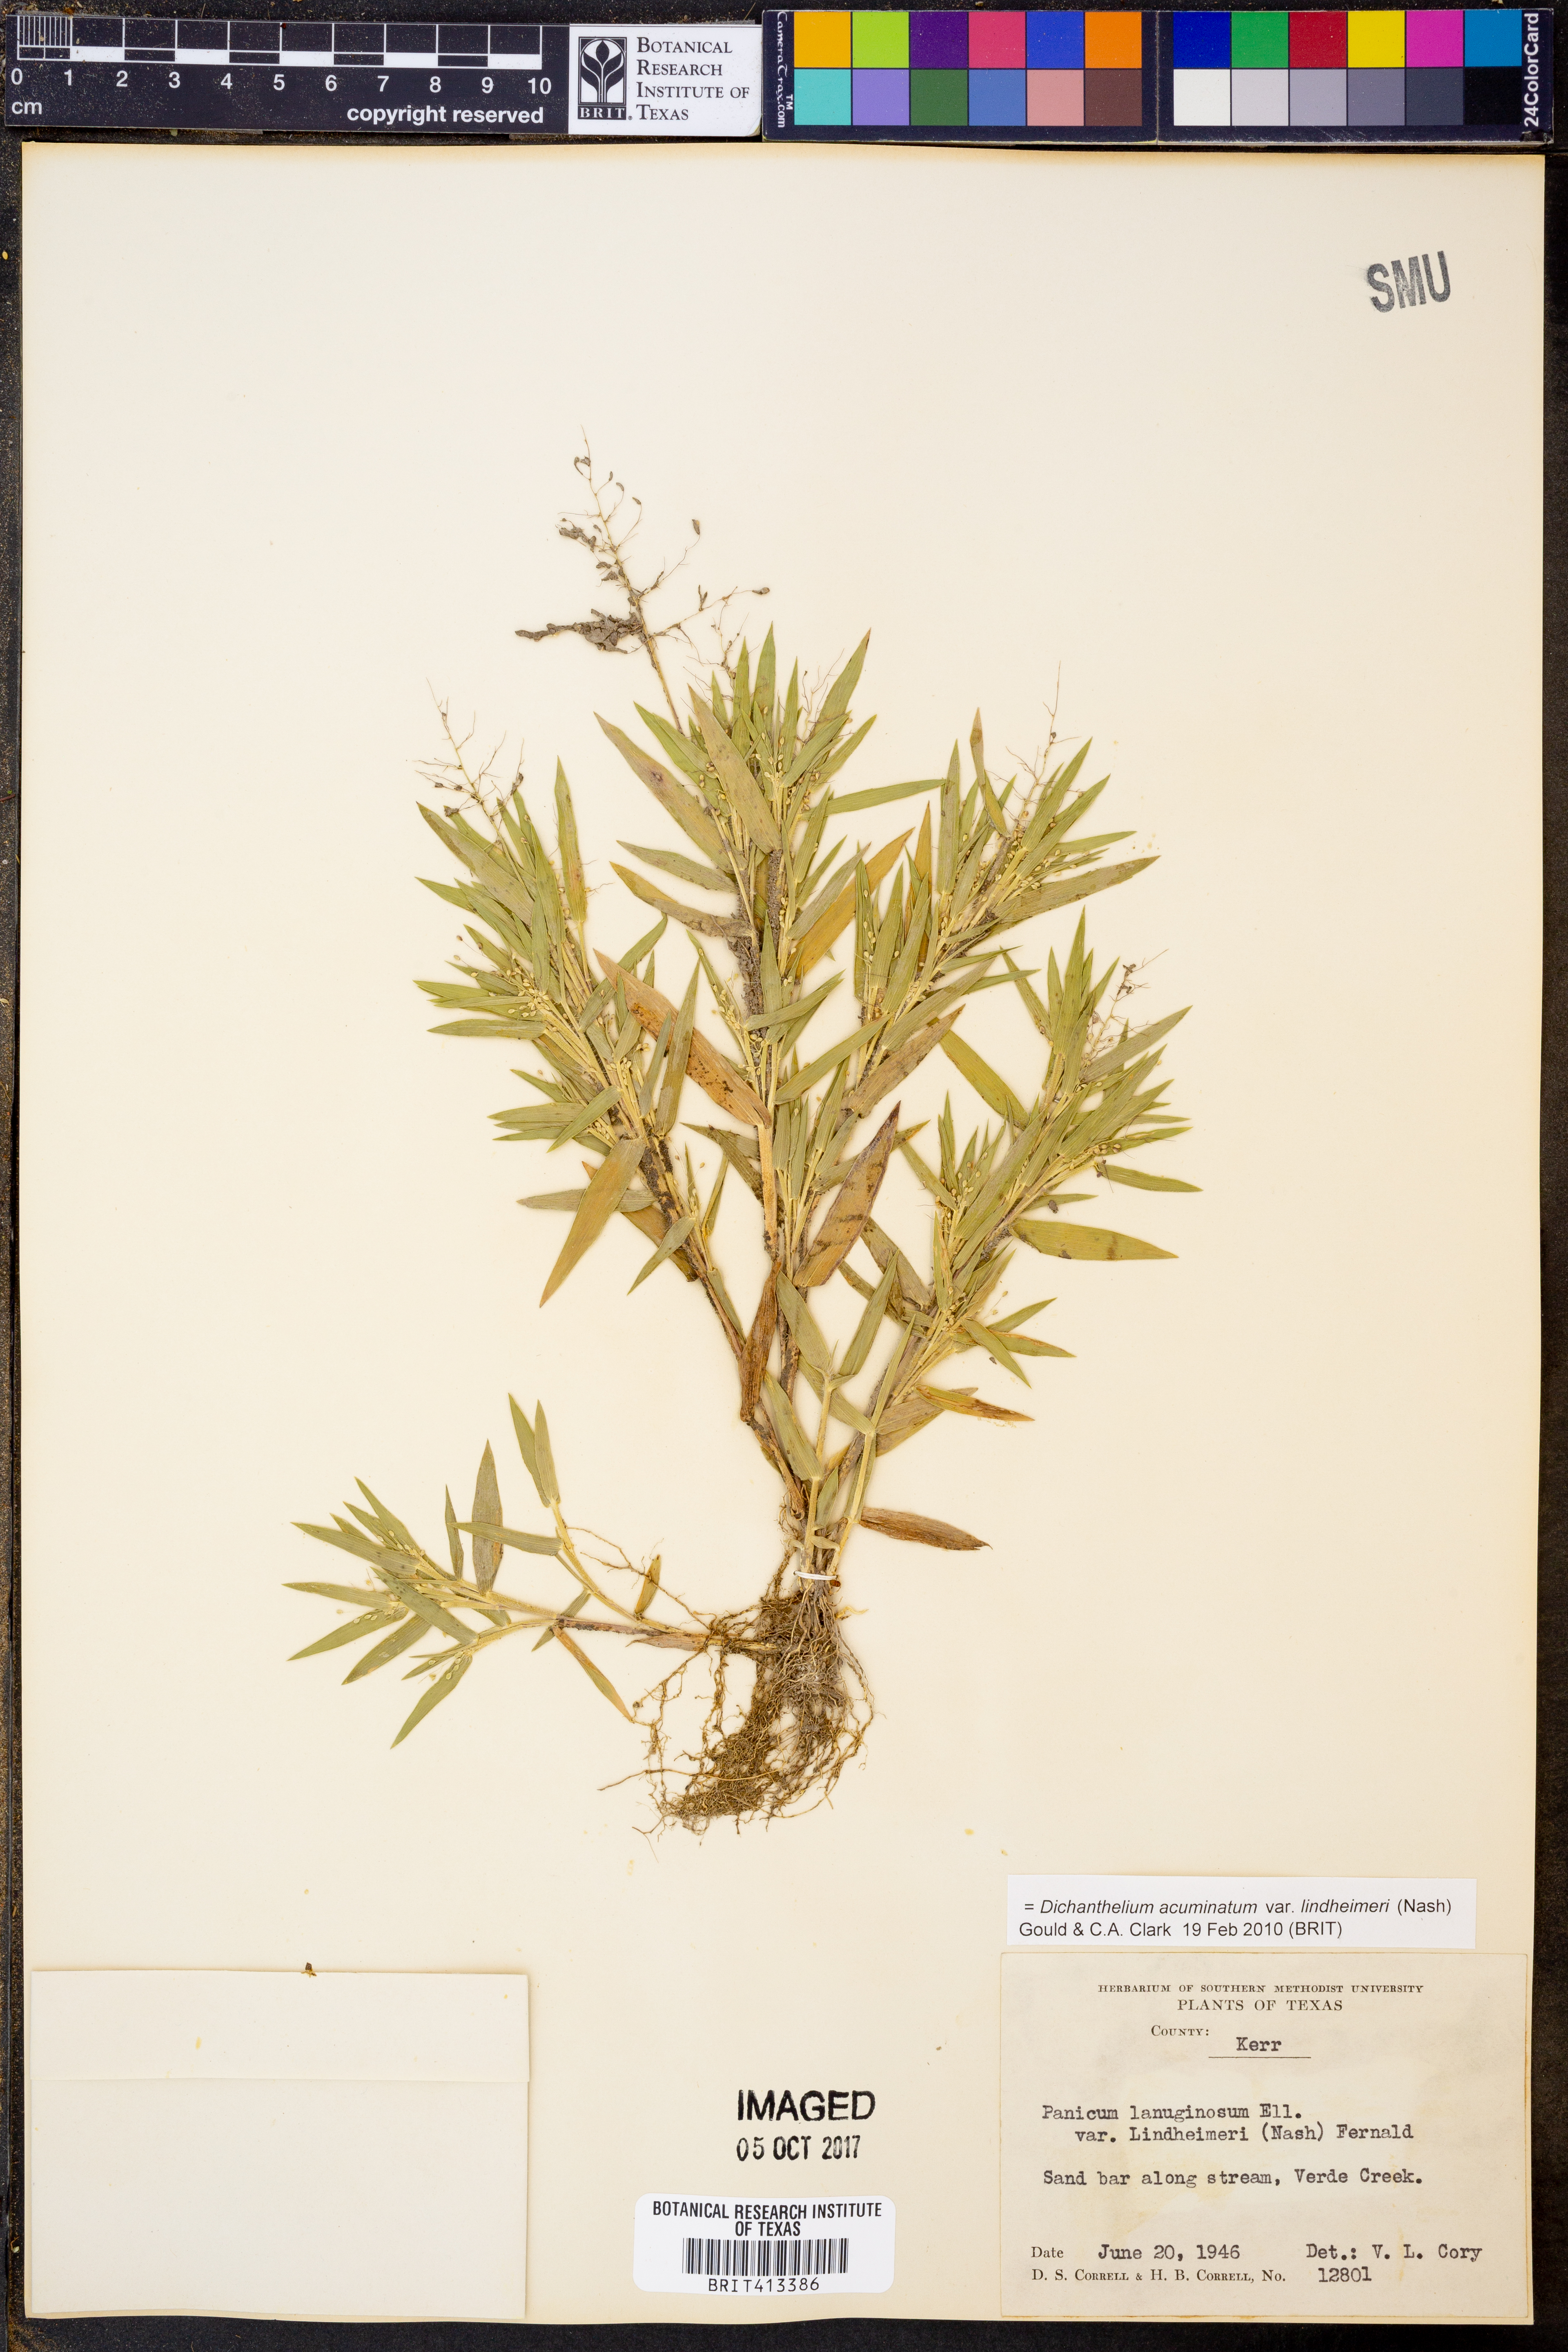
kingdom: Plantae
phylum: Tracheophyta
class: Liliopsida
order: Poales
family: Poaceae
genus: Dichanthelium
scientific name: Dichanthelium lindheimeri
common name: Lindheimer's panicgrass
